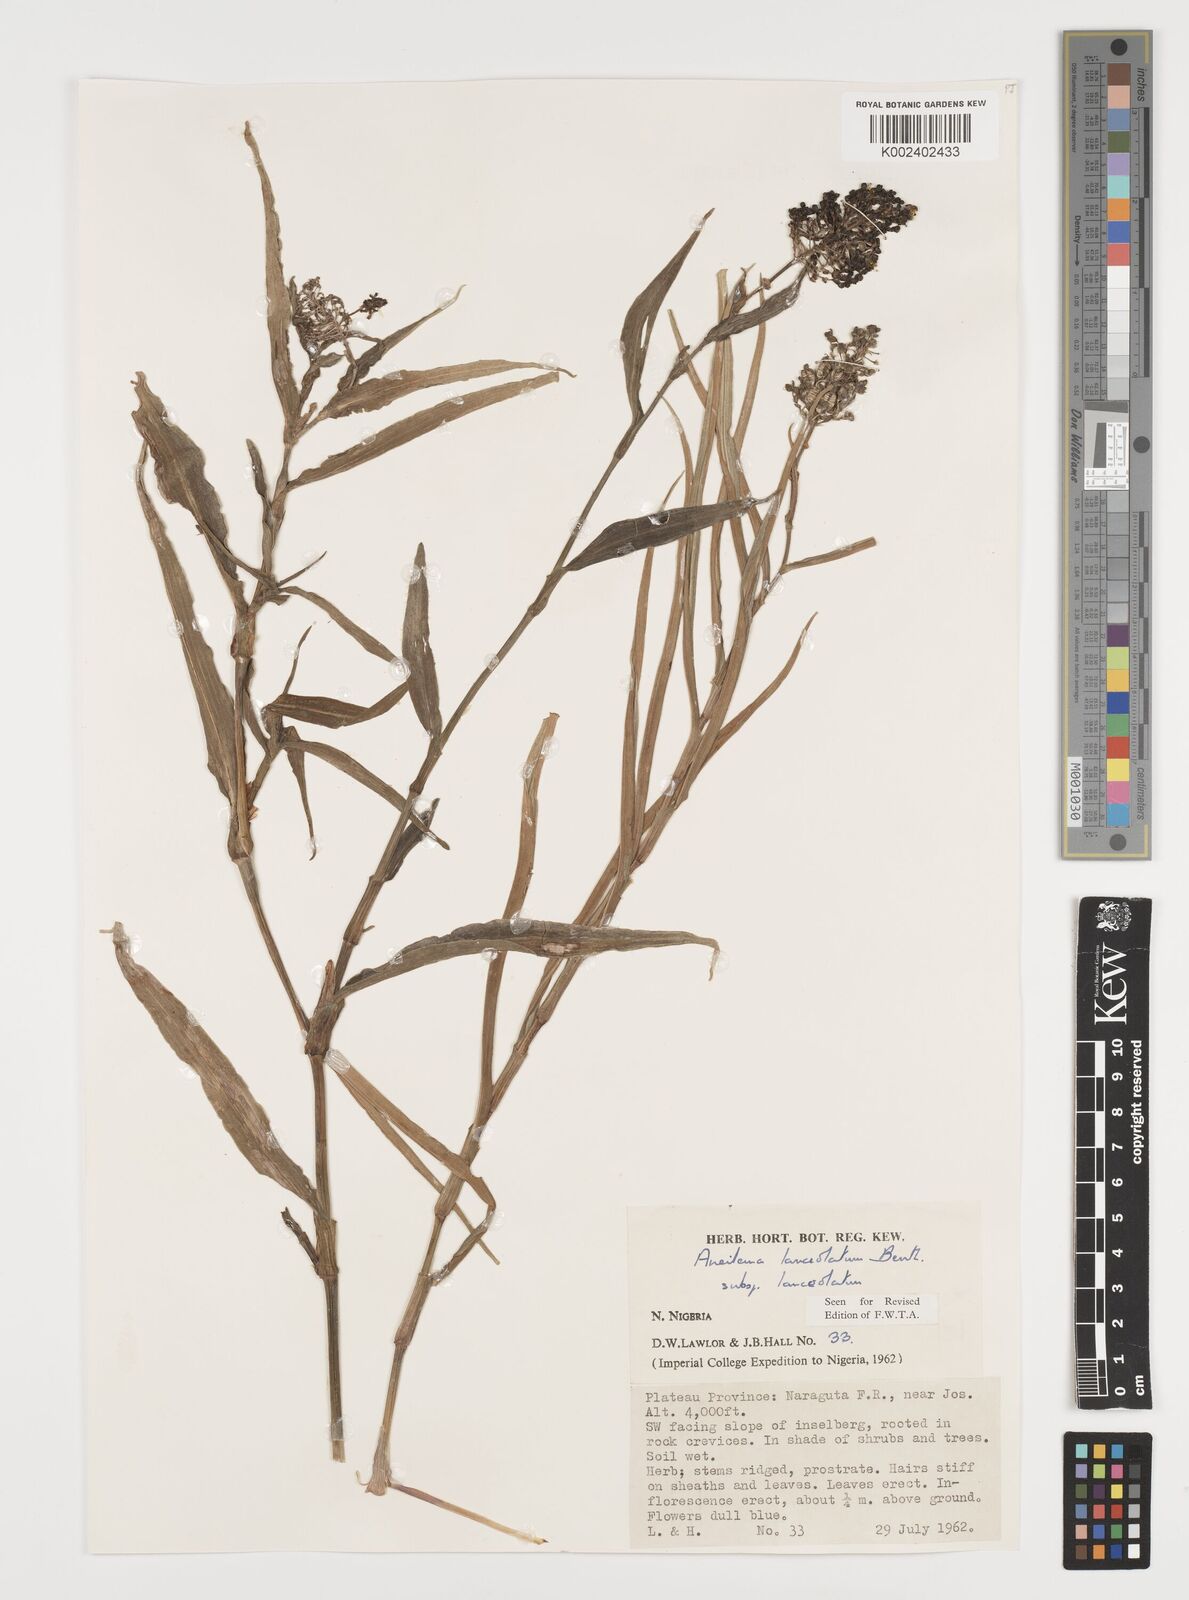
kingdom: Plantae
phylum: Tracheophyta
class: Liliopsida
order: Commelinales
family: Commelinaceae
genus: Aneilema
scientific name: Aneilema lanceolatum
